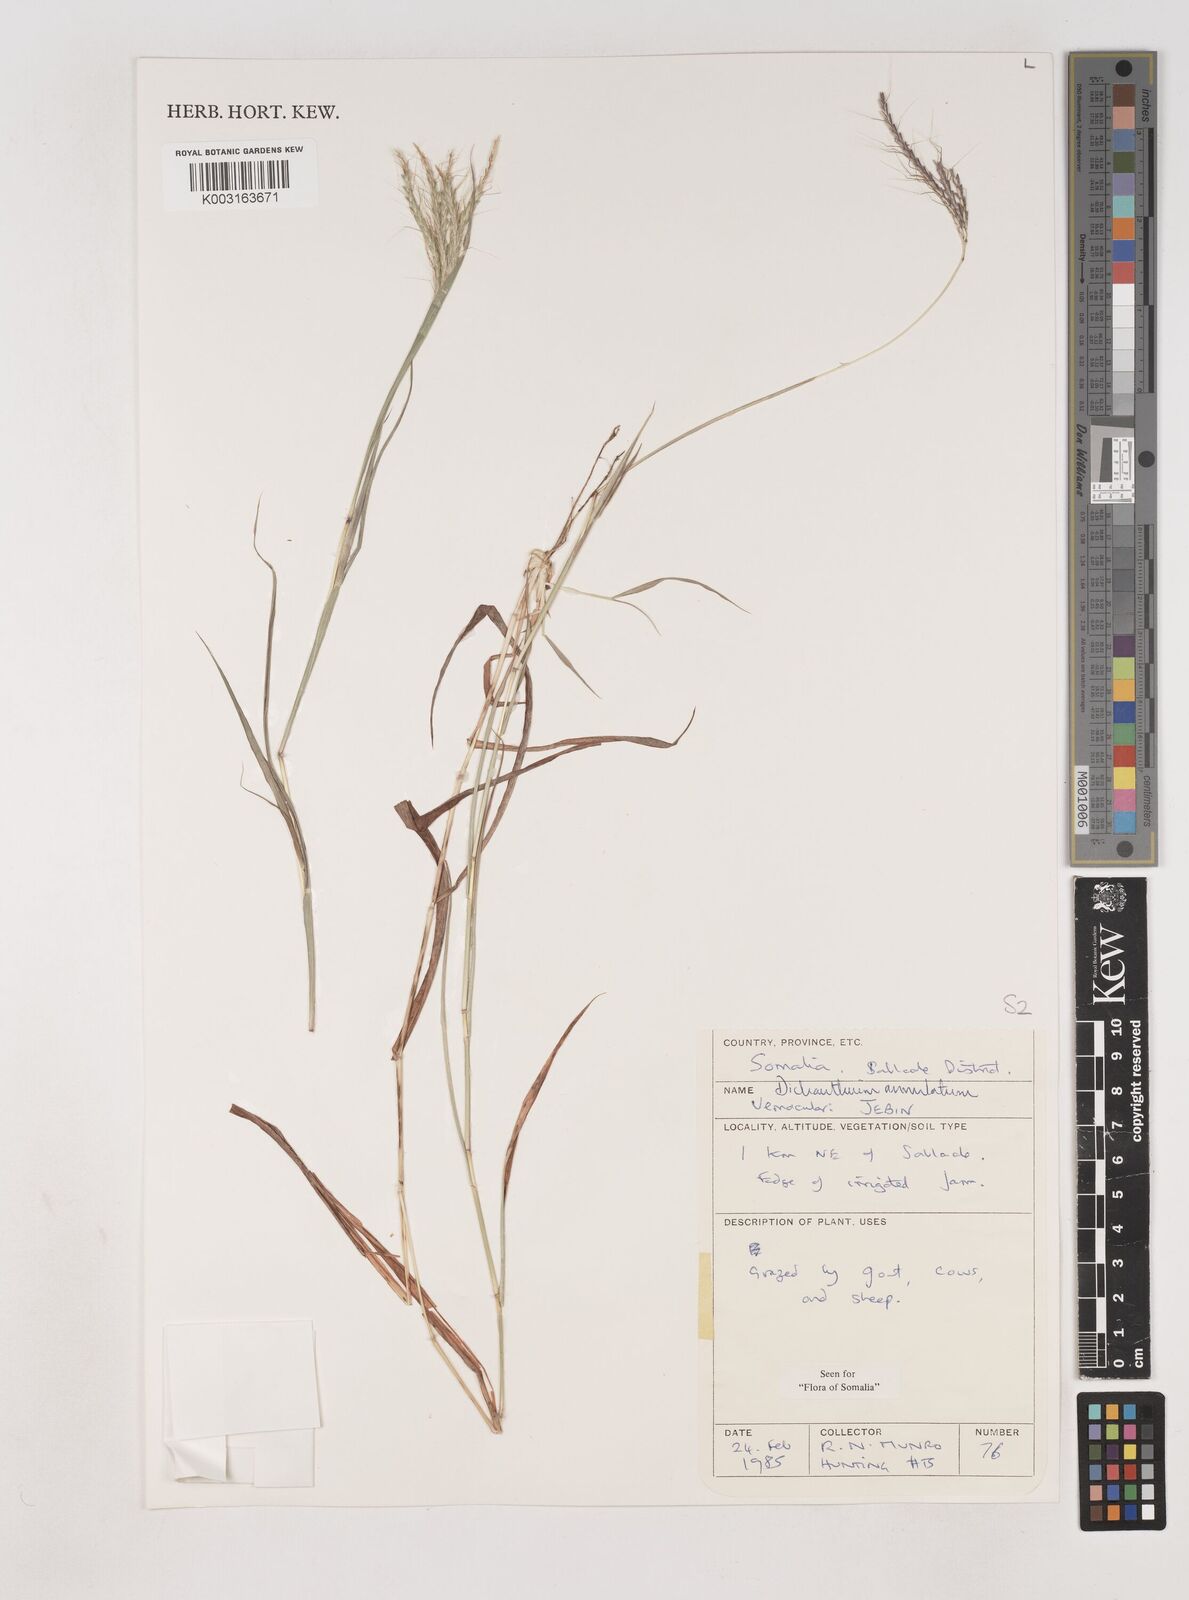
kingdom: Plantae
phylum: Tracheophyta
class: Liliopsida
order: Poales
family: Poaceae
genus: Dichanthium
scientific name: Dichanthium annulatum
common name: Kleberg's bluestem
